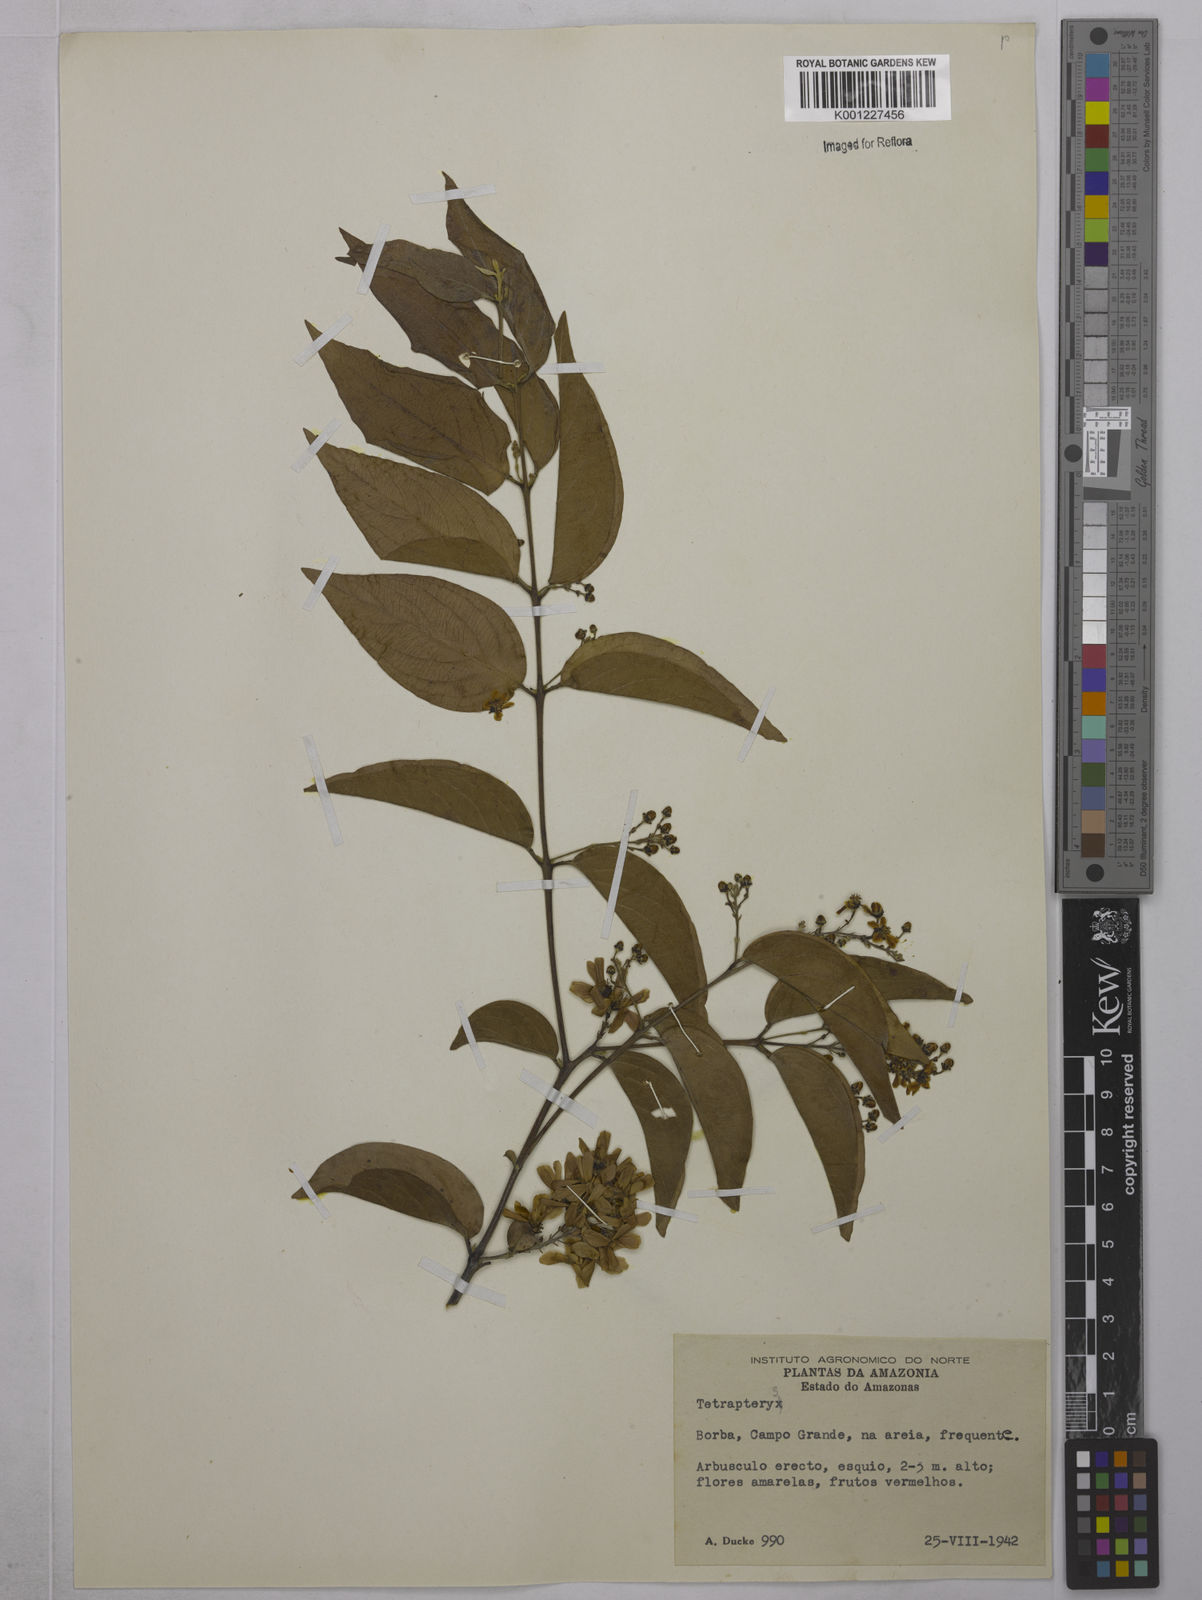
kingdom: Plantae
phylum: Tracheophyta
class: Magnoliopsida
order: Malpighiales
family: Malpighiaceae
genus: Tetrapterys
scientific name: Tetrapterys
